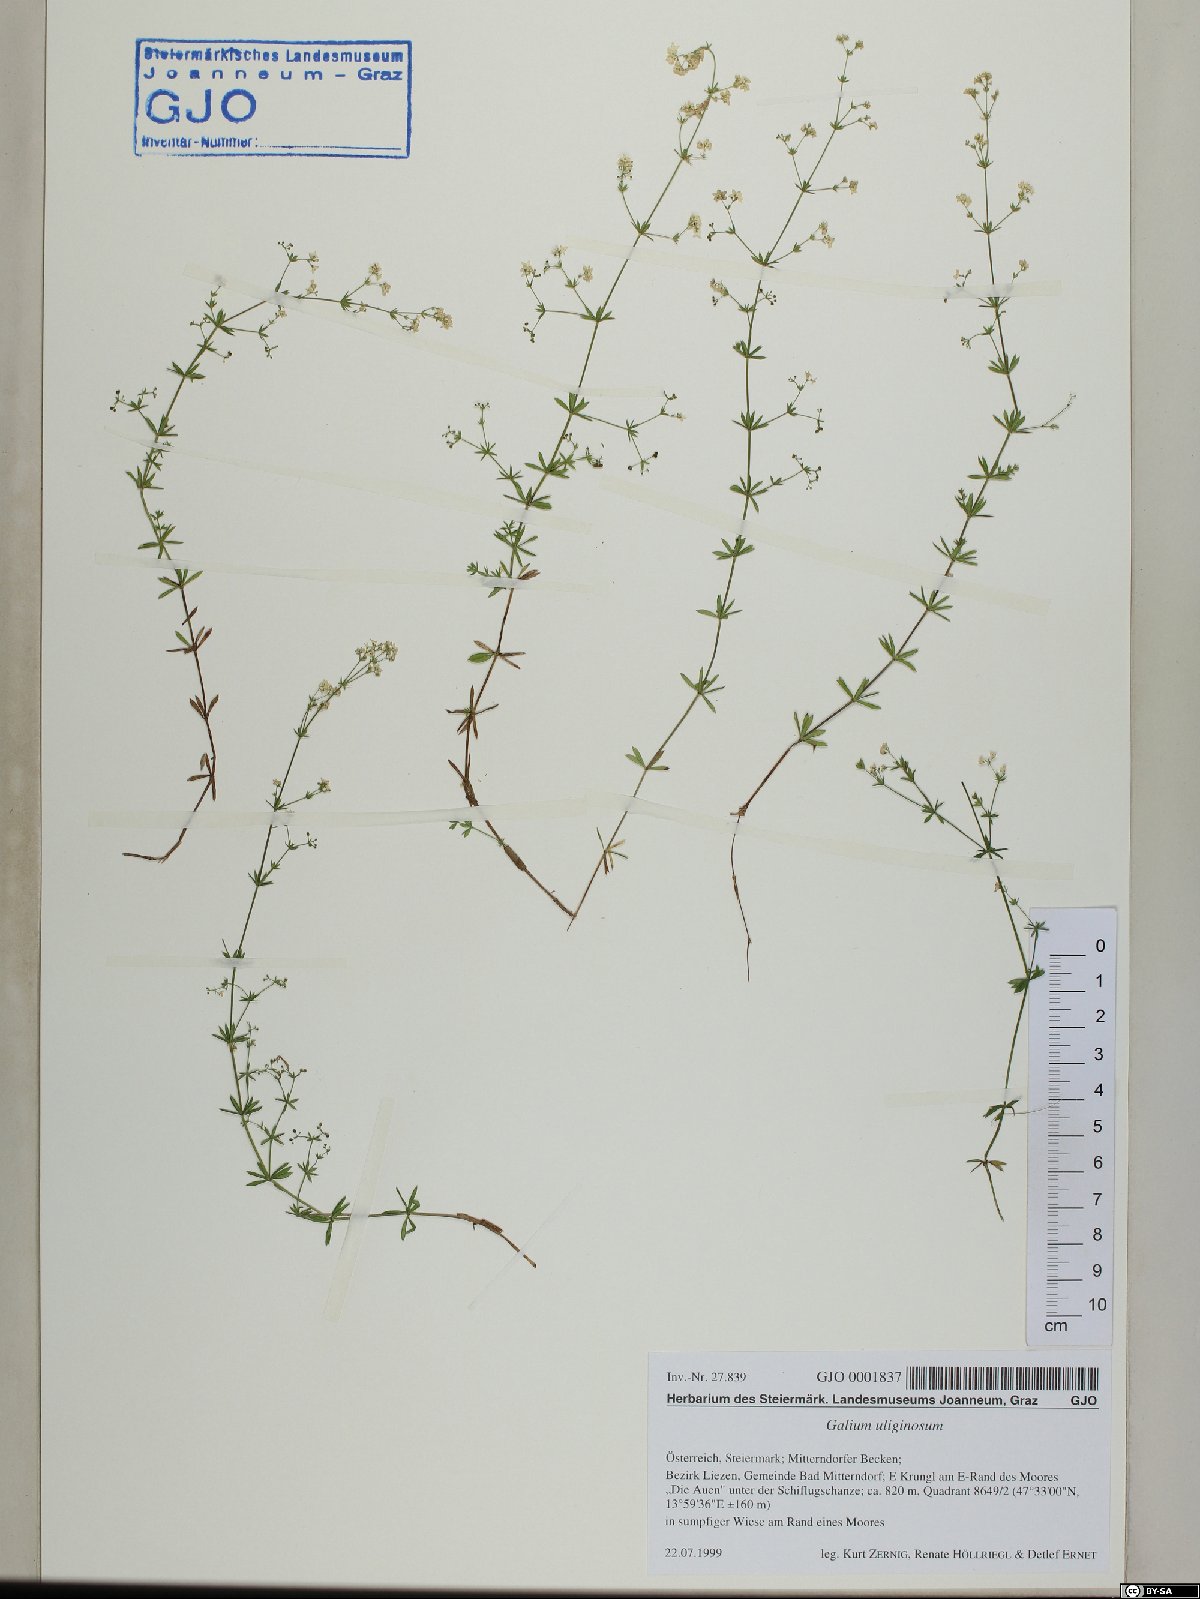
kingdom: Plantae
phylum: Tracheophyta
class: Magnoliopsida
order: Gentianales
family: Rubiaceae
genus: Galium
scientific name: Galium uliginosum
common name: Fen bedstraw
